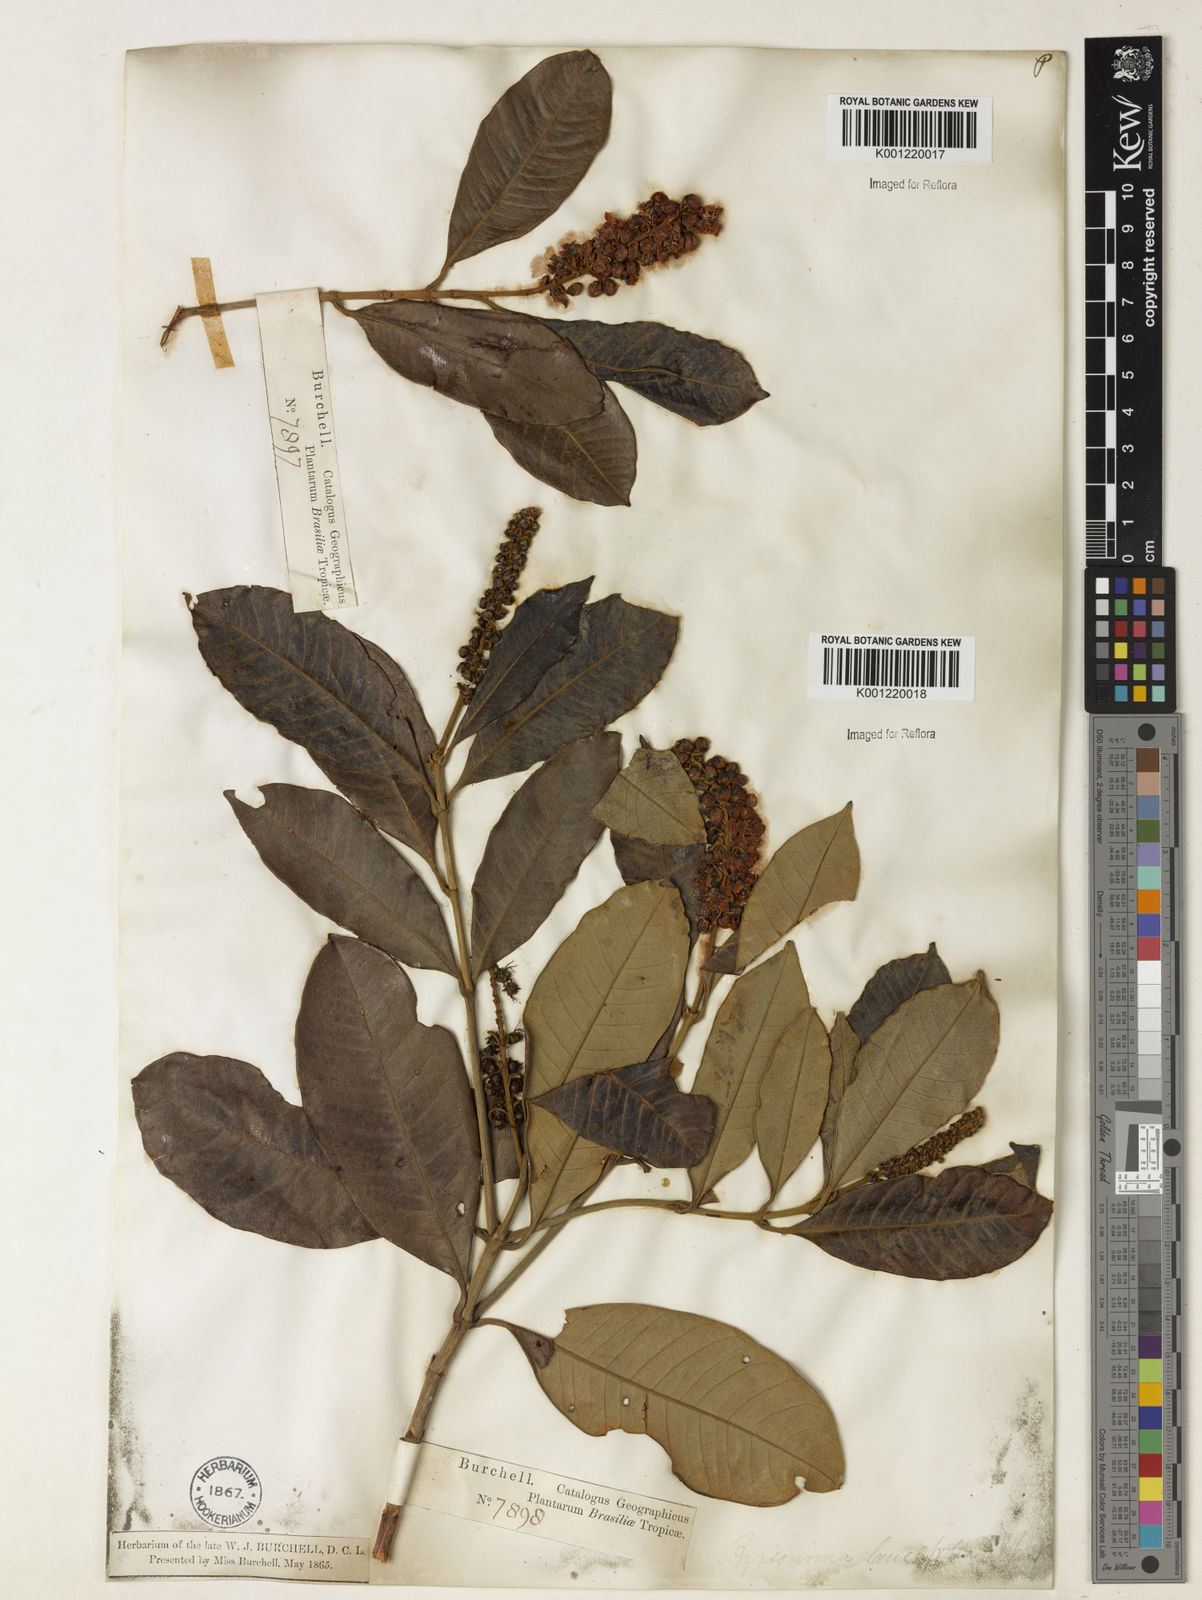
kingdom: Plantae
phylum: Tracheophyta
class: Magnoliopsida
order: Malpighiales
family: Malpighiaceae
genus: Byrsonima
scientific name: Byrsonima lancifolia
